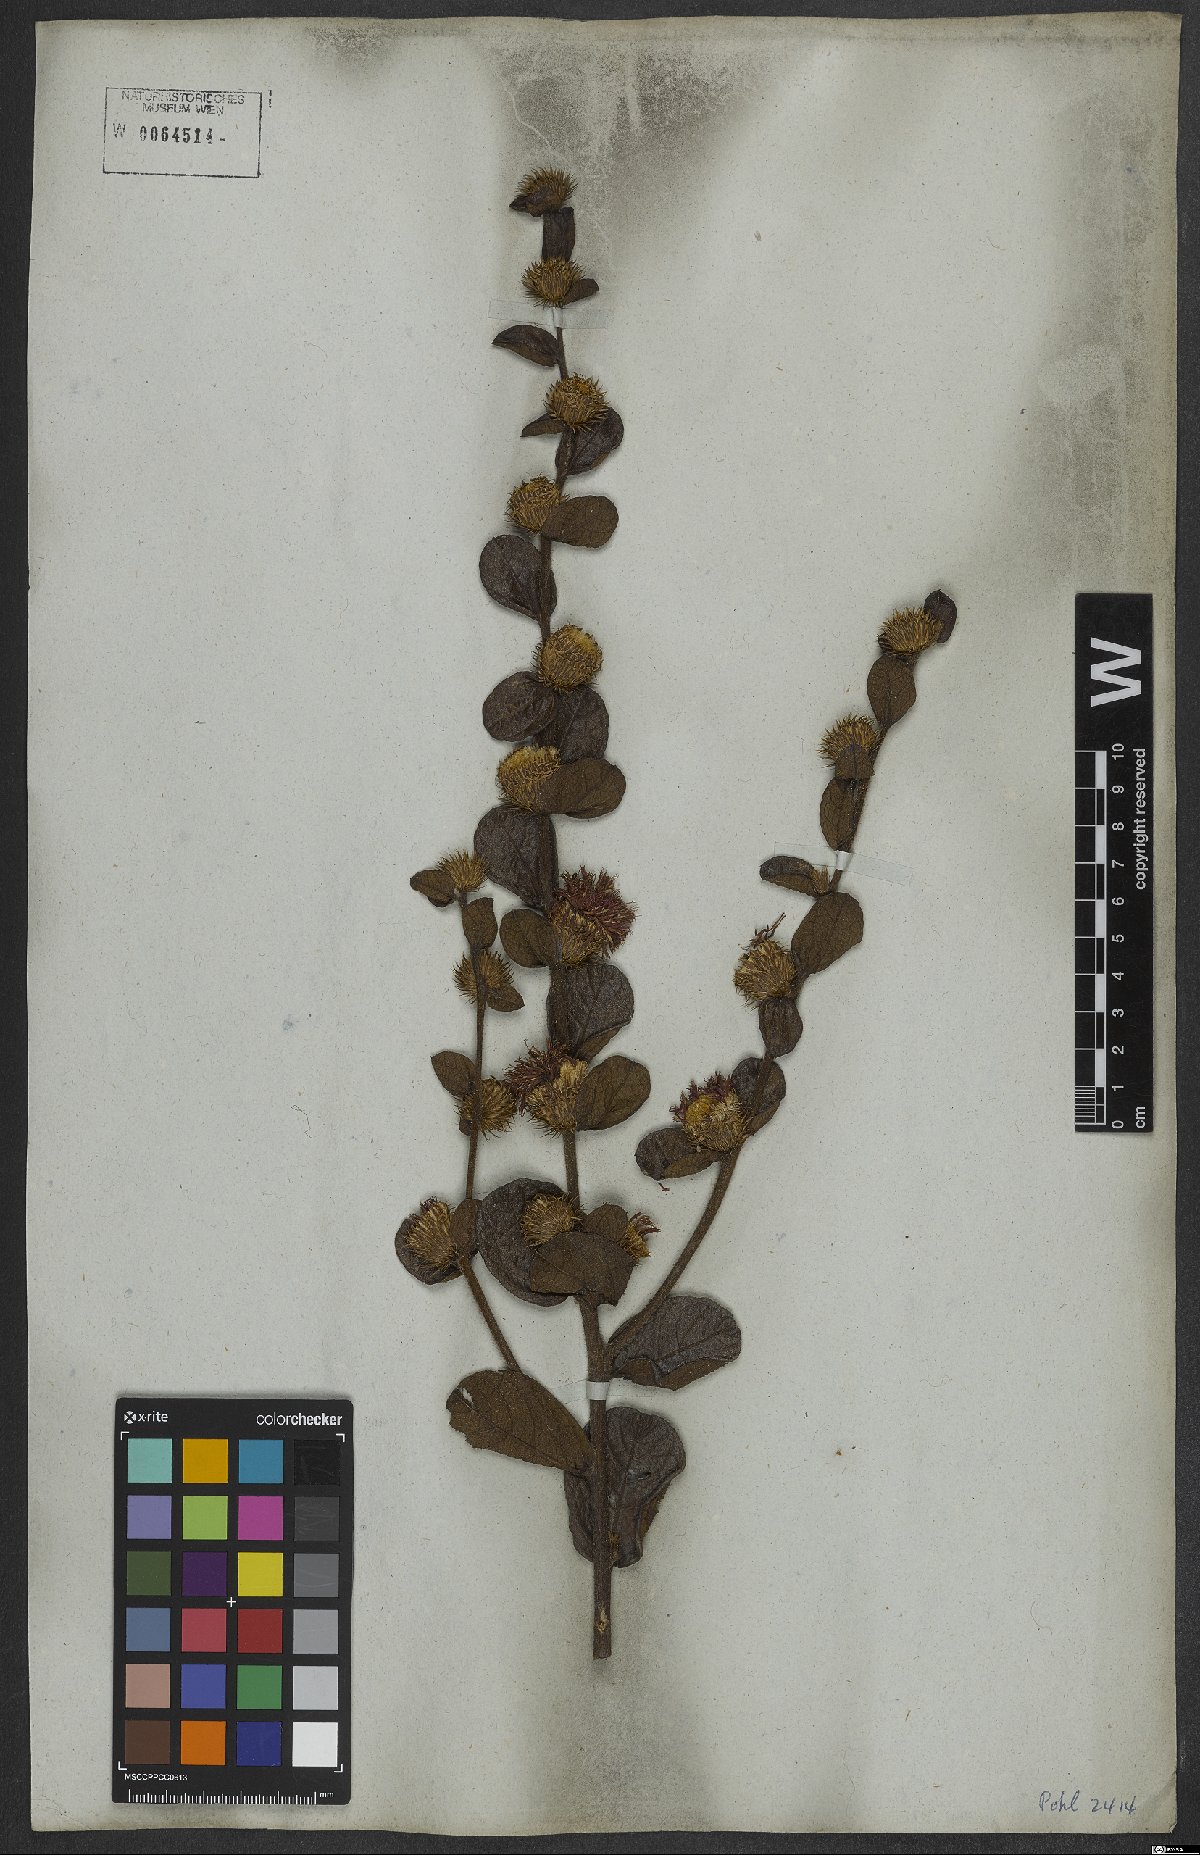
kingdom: Plantae
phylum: Tracheophyta
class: Magnoliopsida
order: Asterales
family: Asteraceae
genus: Lessingianthus
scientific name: Lessingianthus bardanioides
